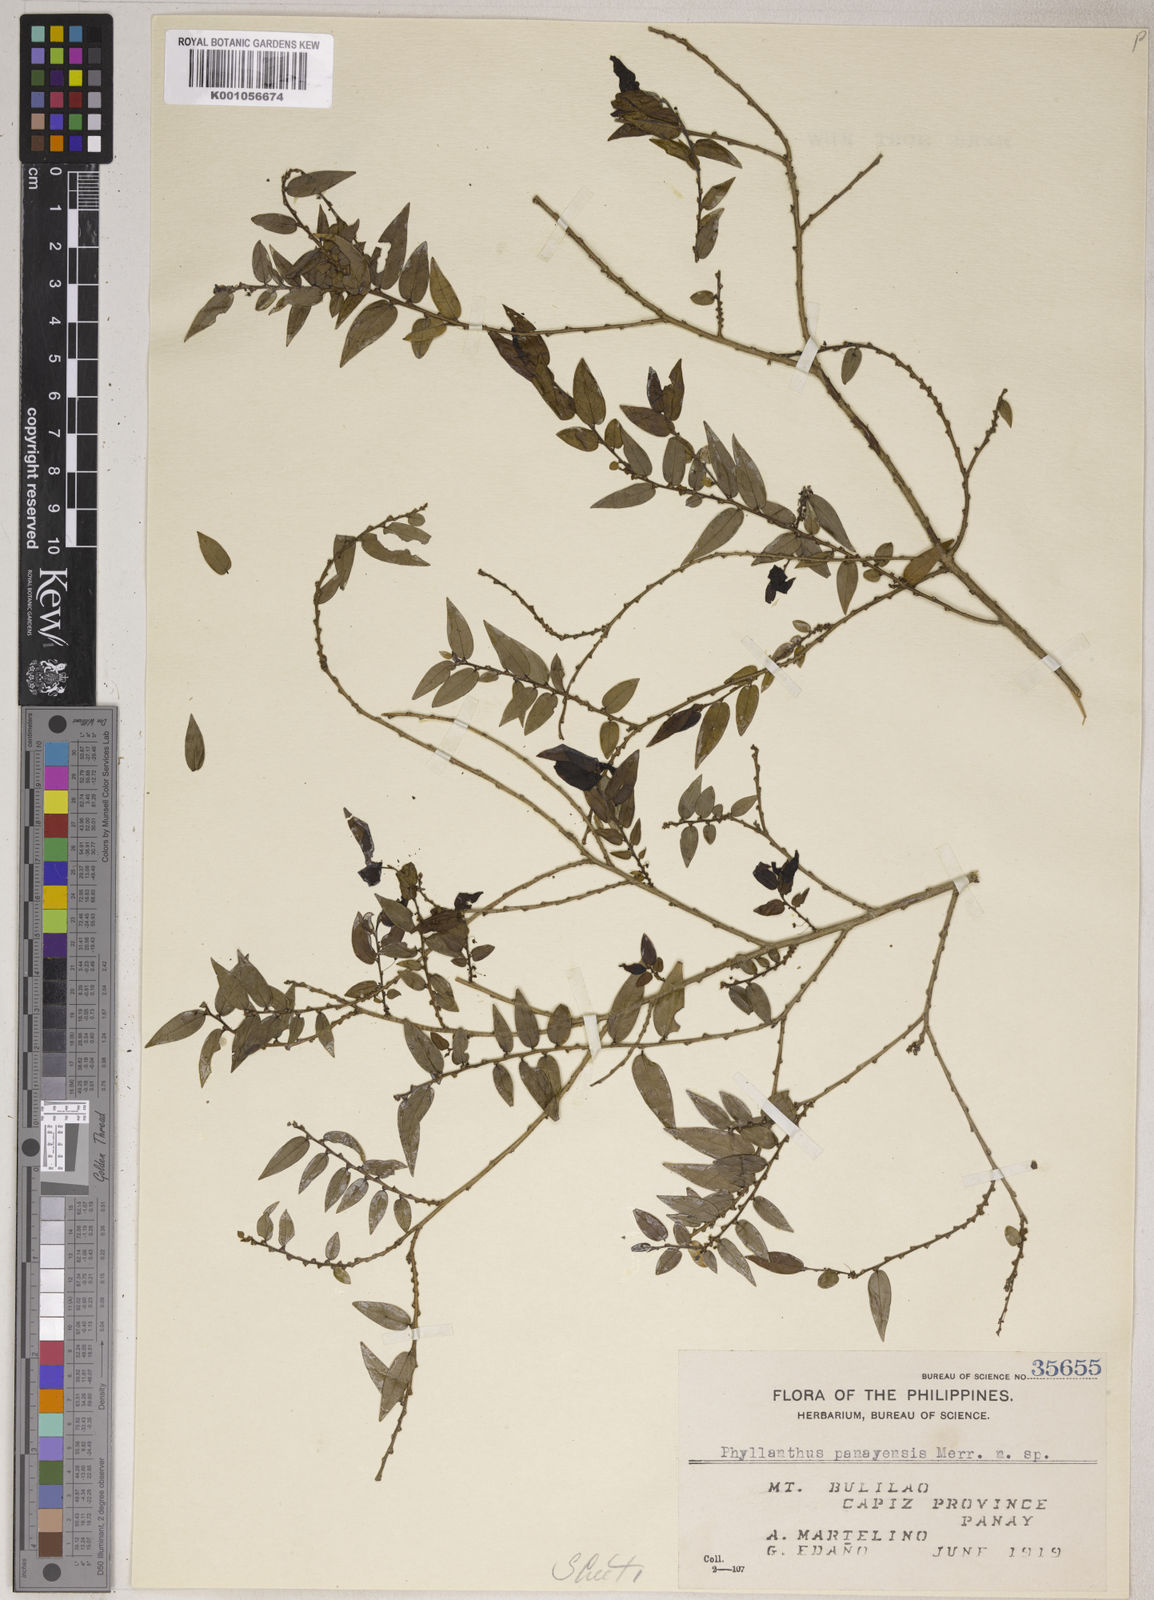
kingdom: Plantae
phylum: Tracheophyta
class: Magnoliopsida
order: Malpighiales
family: Phyllanthaceae
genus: Phyllanthus
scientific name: Phyllanthus lancifolius
